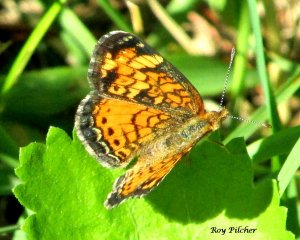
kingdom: Animalia
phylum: Arthropoda
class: Insecta
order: Lepidoptera
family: Nymphalidae
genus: Phyciodes
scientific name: Phyciodes tharos
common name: Northern Crescent
